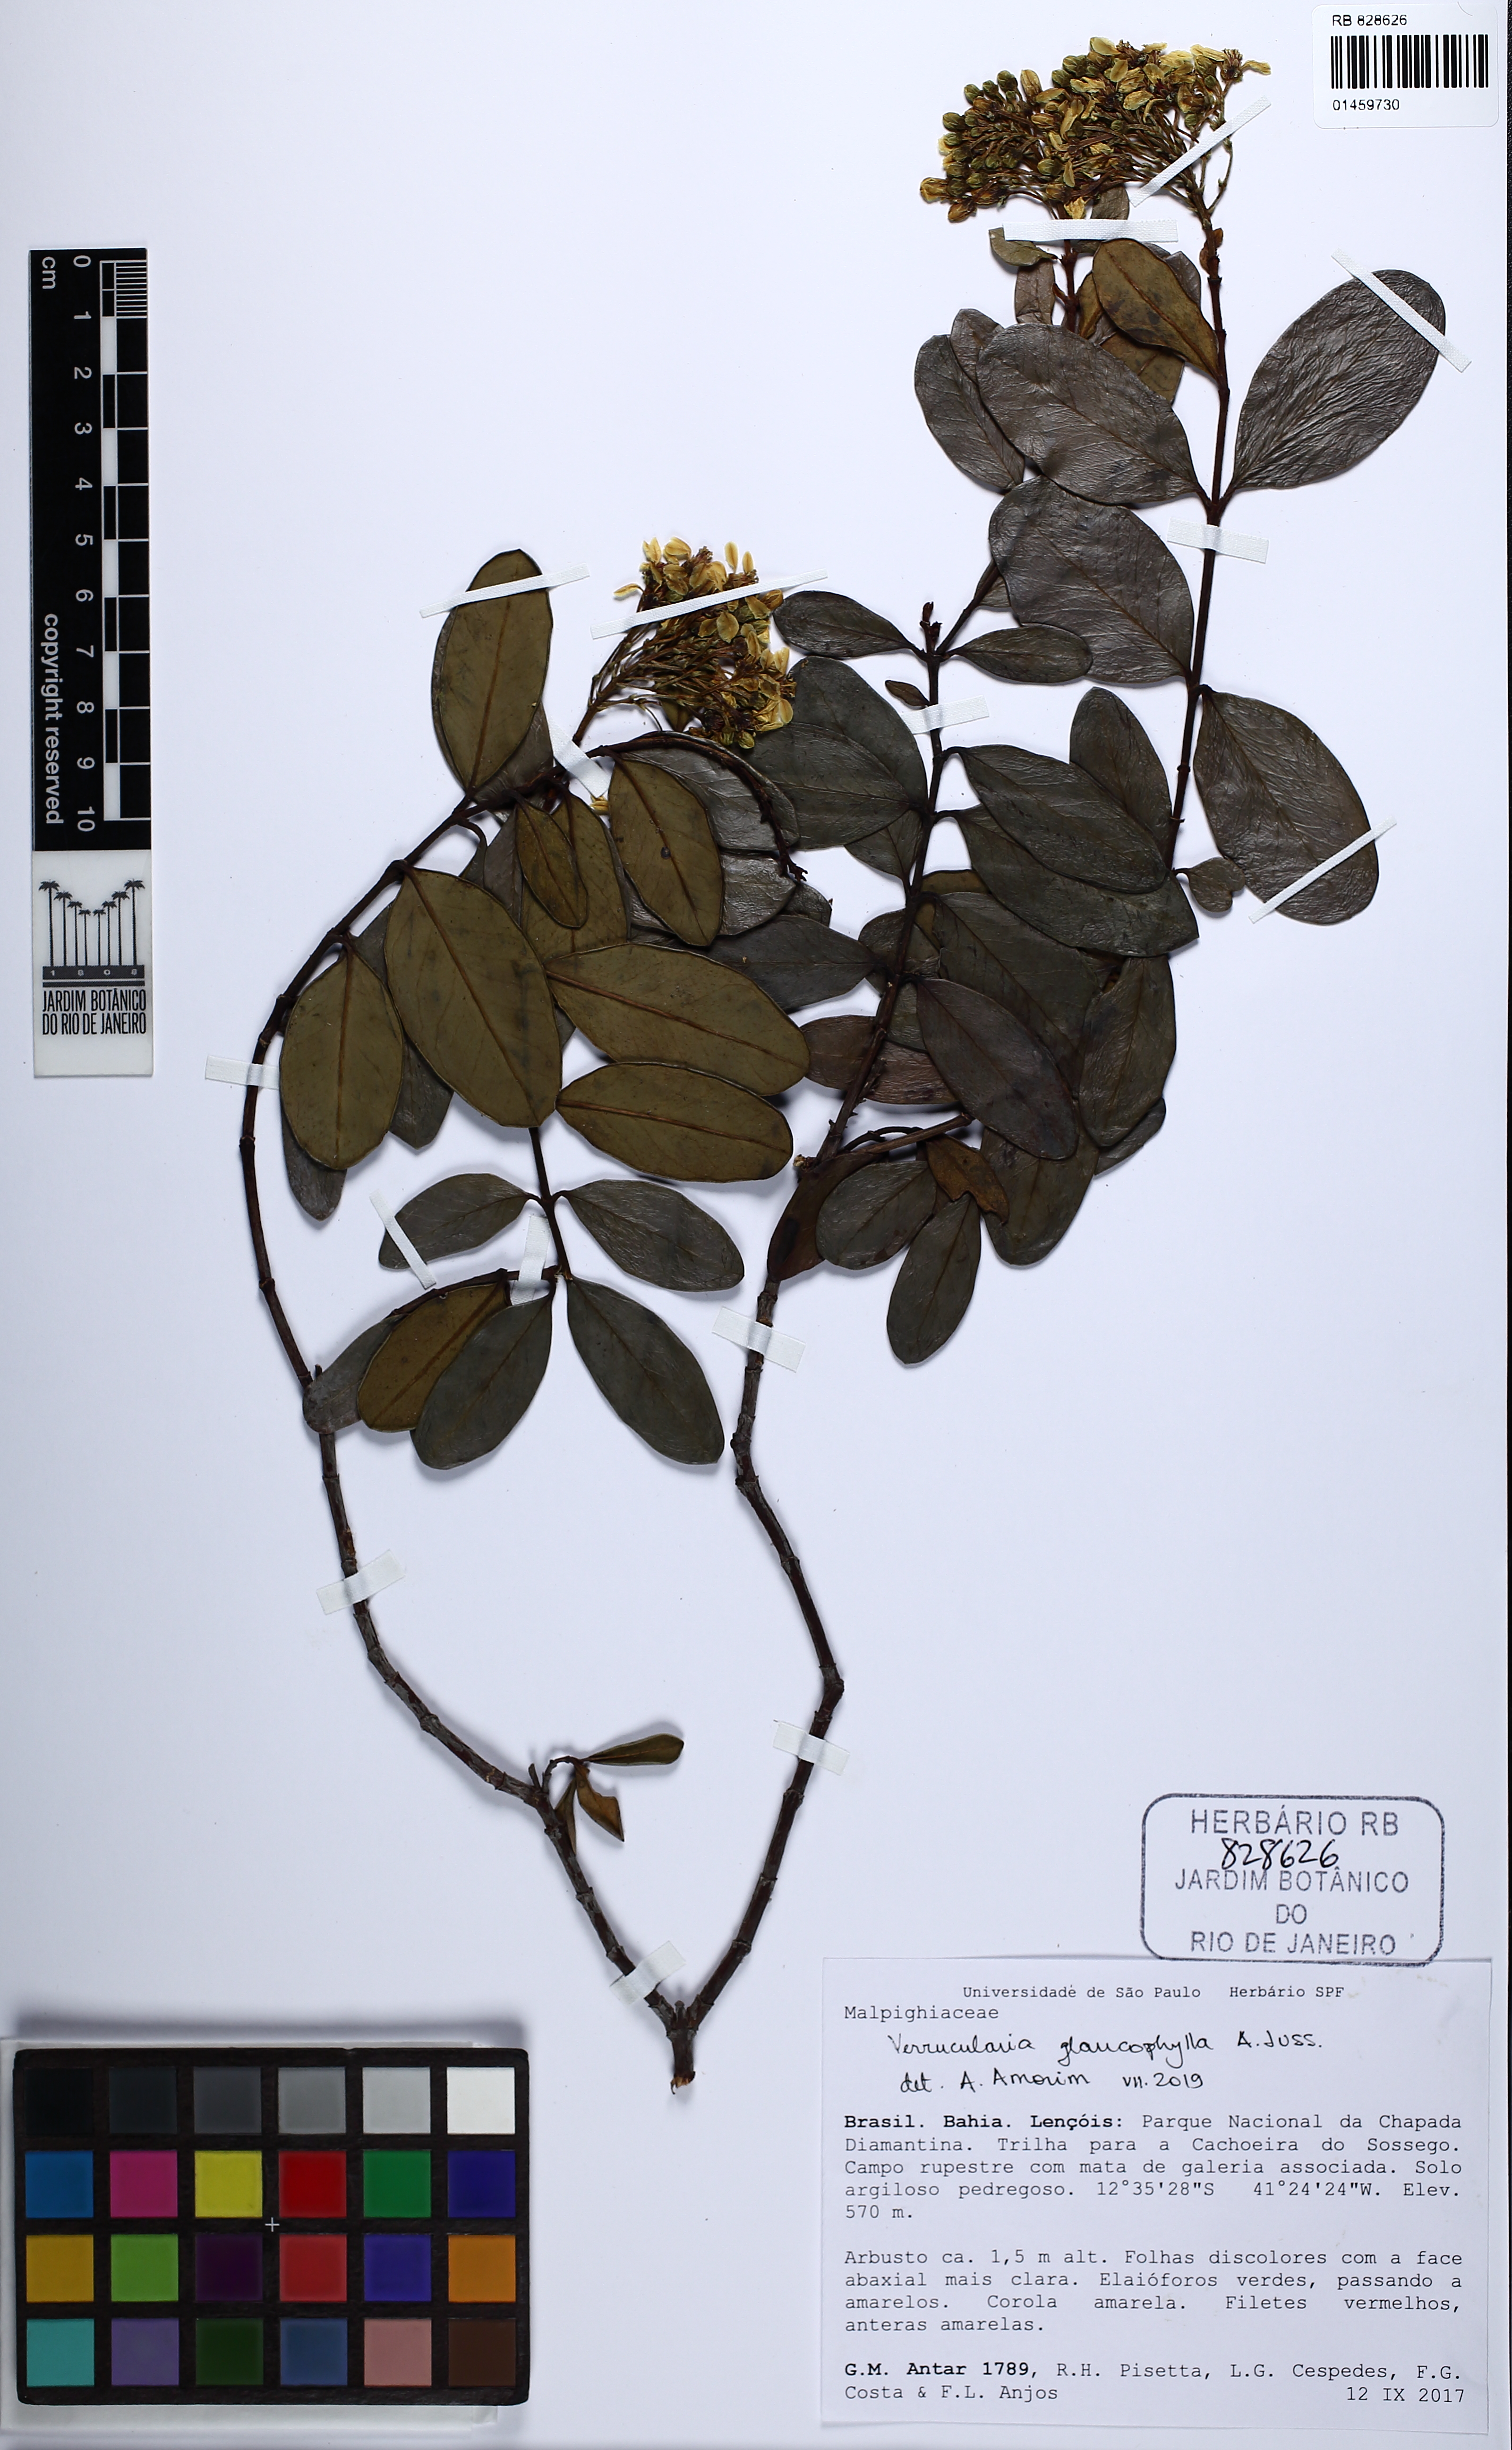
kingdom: Plantae
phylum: Tracheophyta
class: Magnoliopsida
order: Malpighiales
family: Malpighiaceae
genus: Verrucularina
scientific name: Verrucularina glaucophylla
